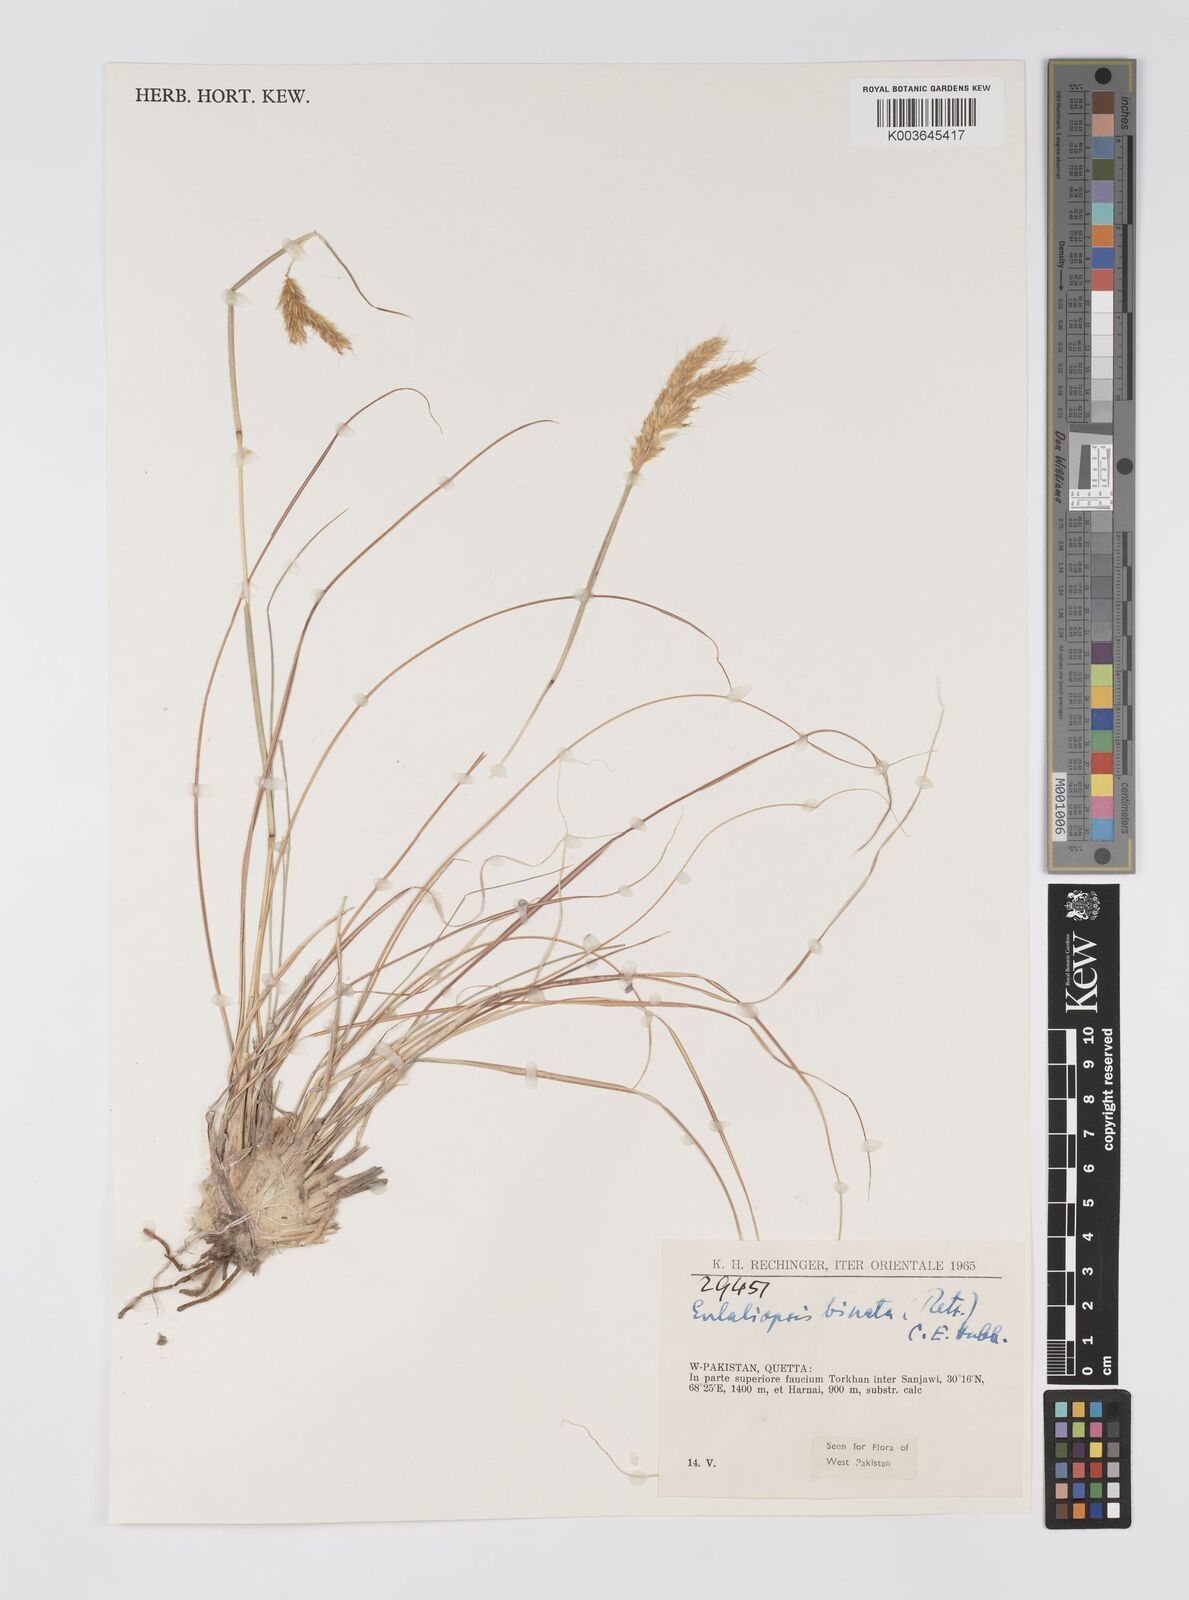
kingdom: Plantae
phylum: Tracheophyta
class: Liliopsida
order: Poales
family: Poaceae
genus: Eulaliopsis
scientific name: Eulaliopsis binata
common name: Baib grass
